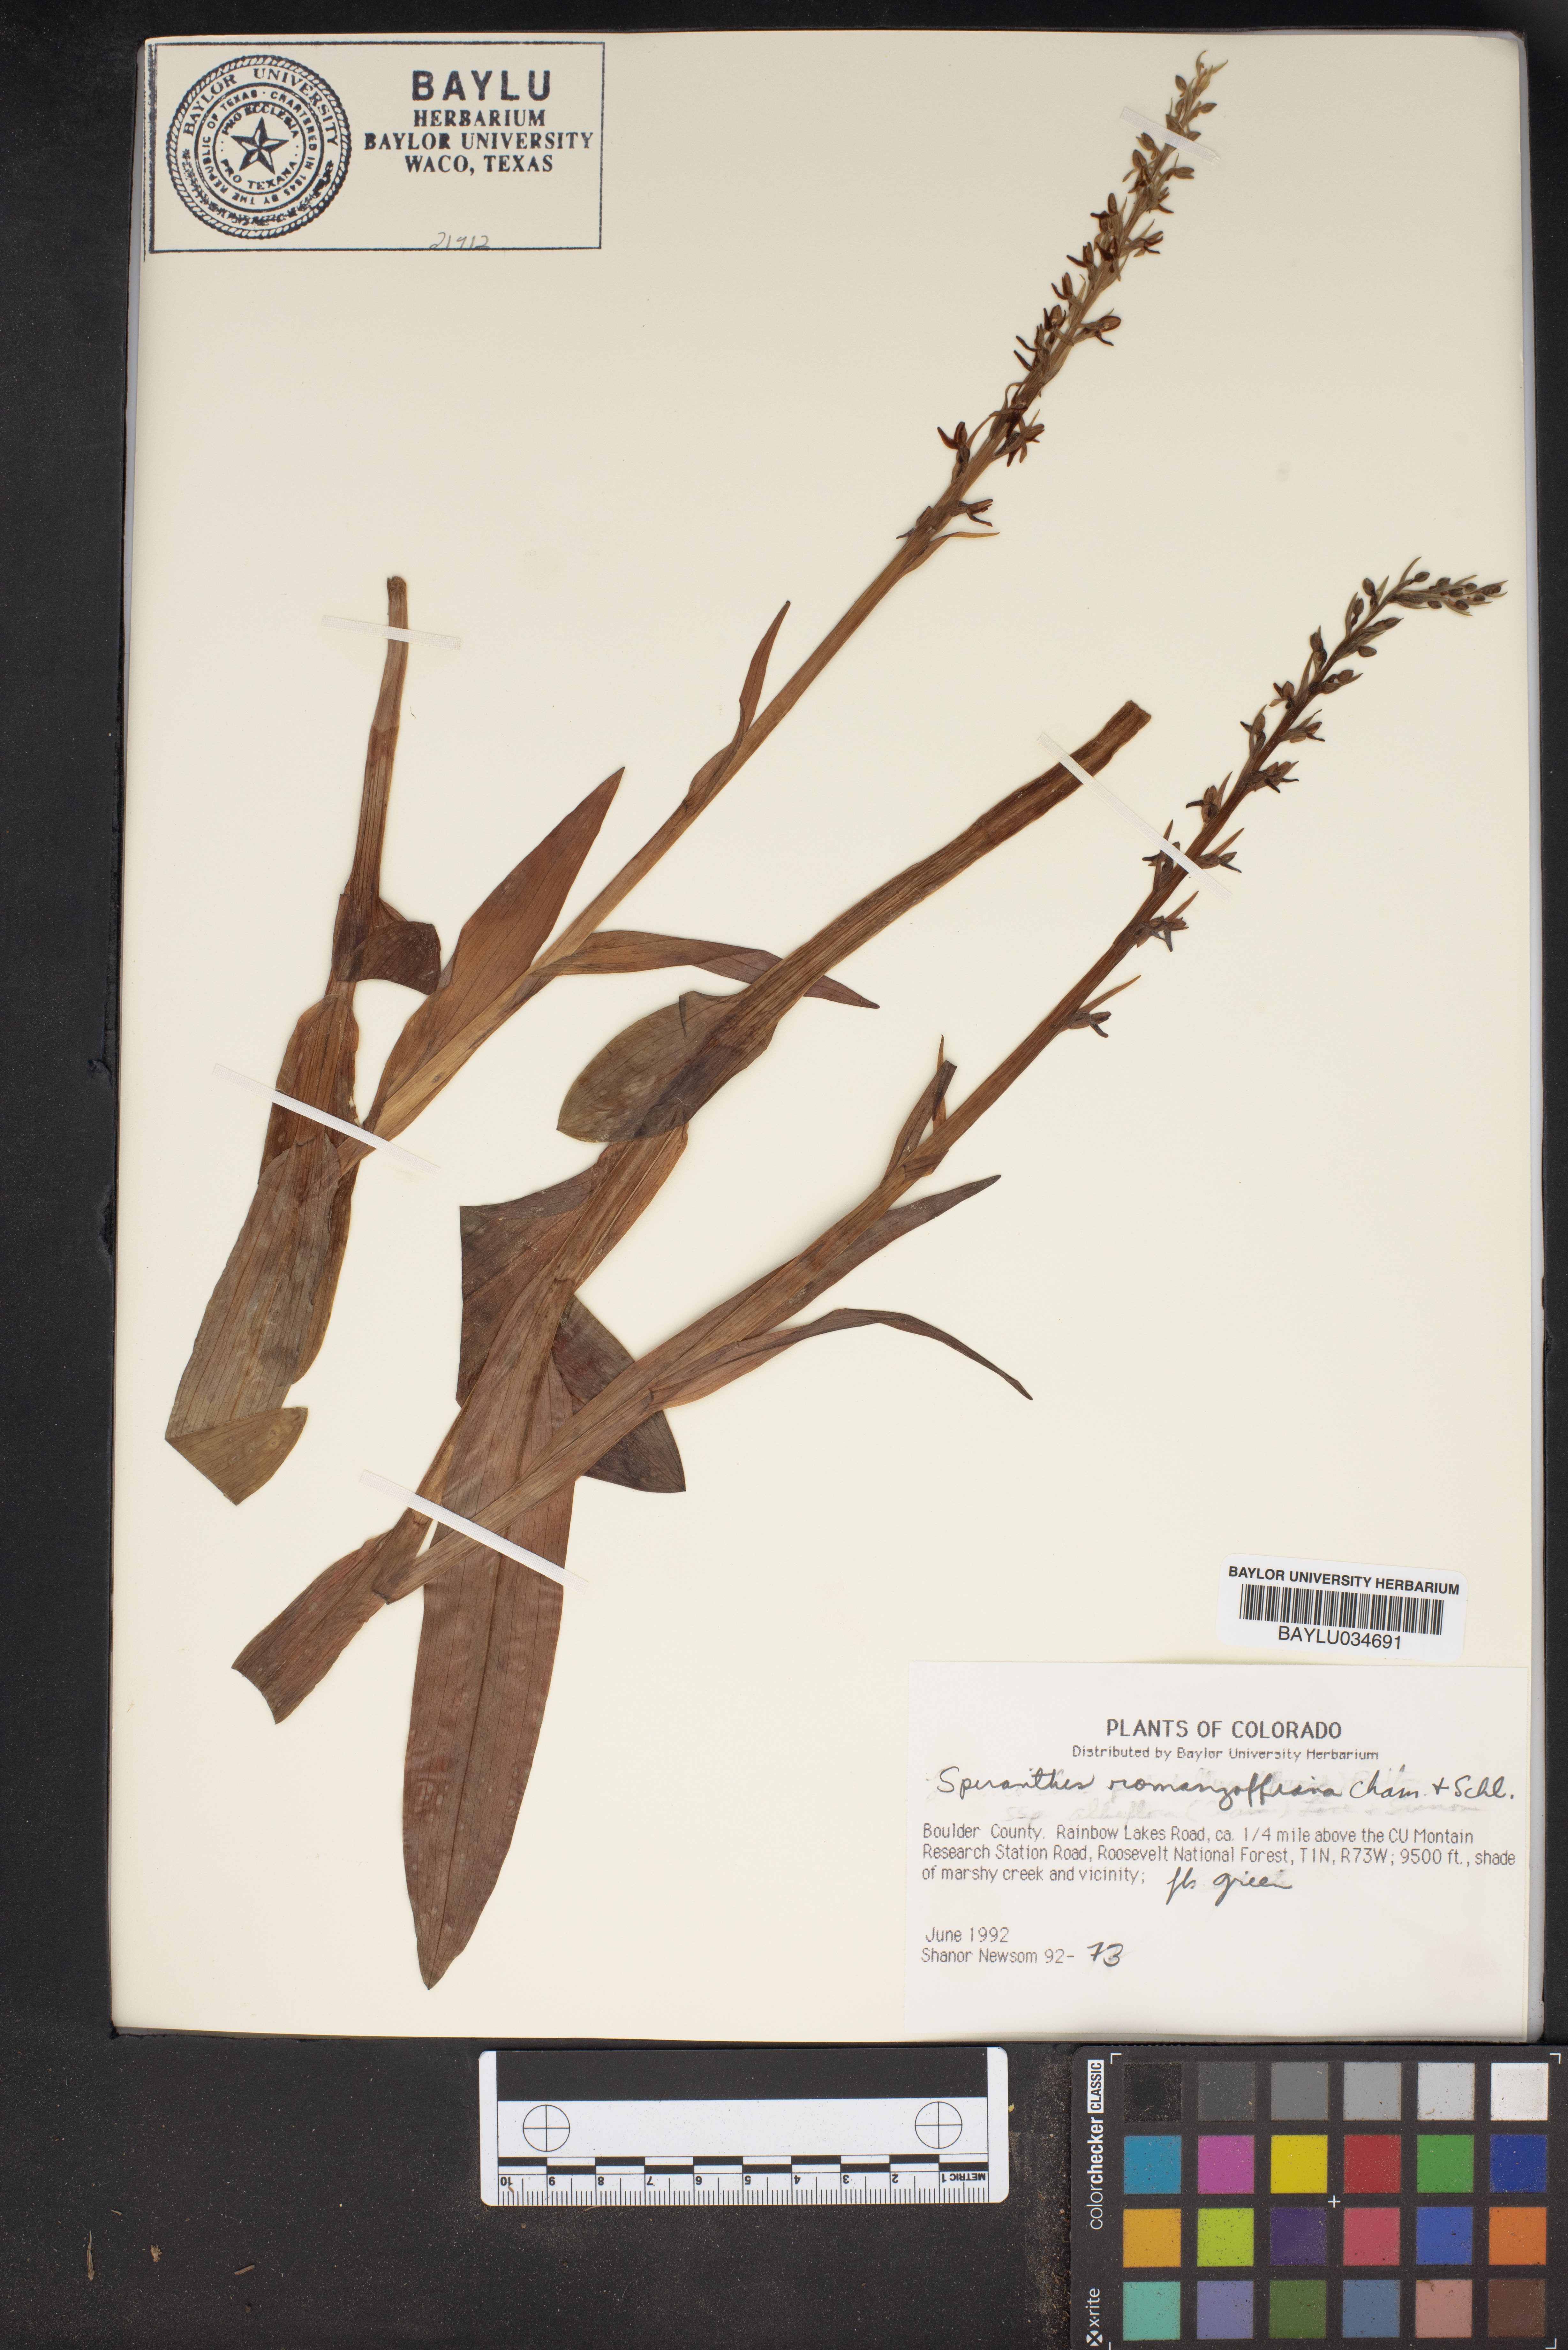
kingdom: Plantae
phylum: Tracheophyta
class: Magnoliopsida
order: Asterales
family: Asteraceae
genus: Spilanthes
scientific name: Spilanthes
